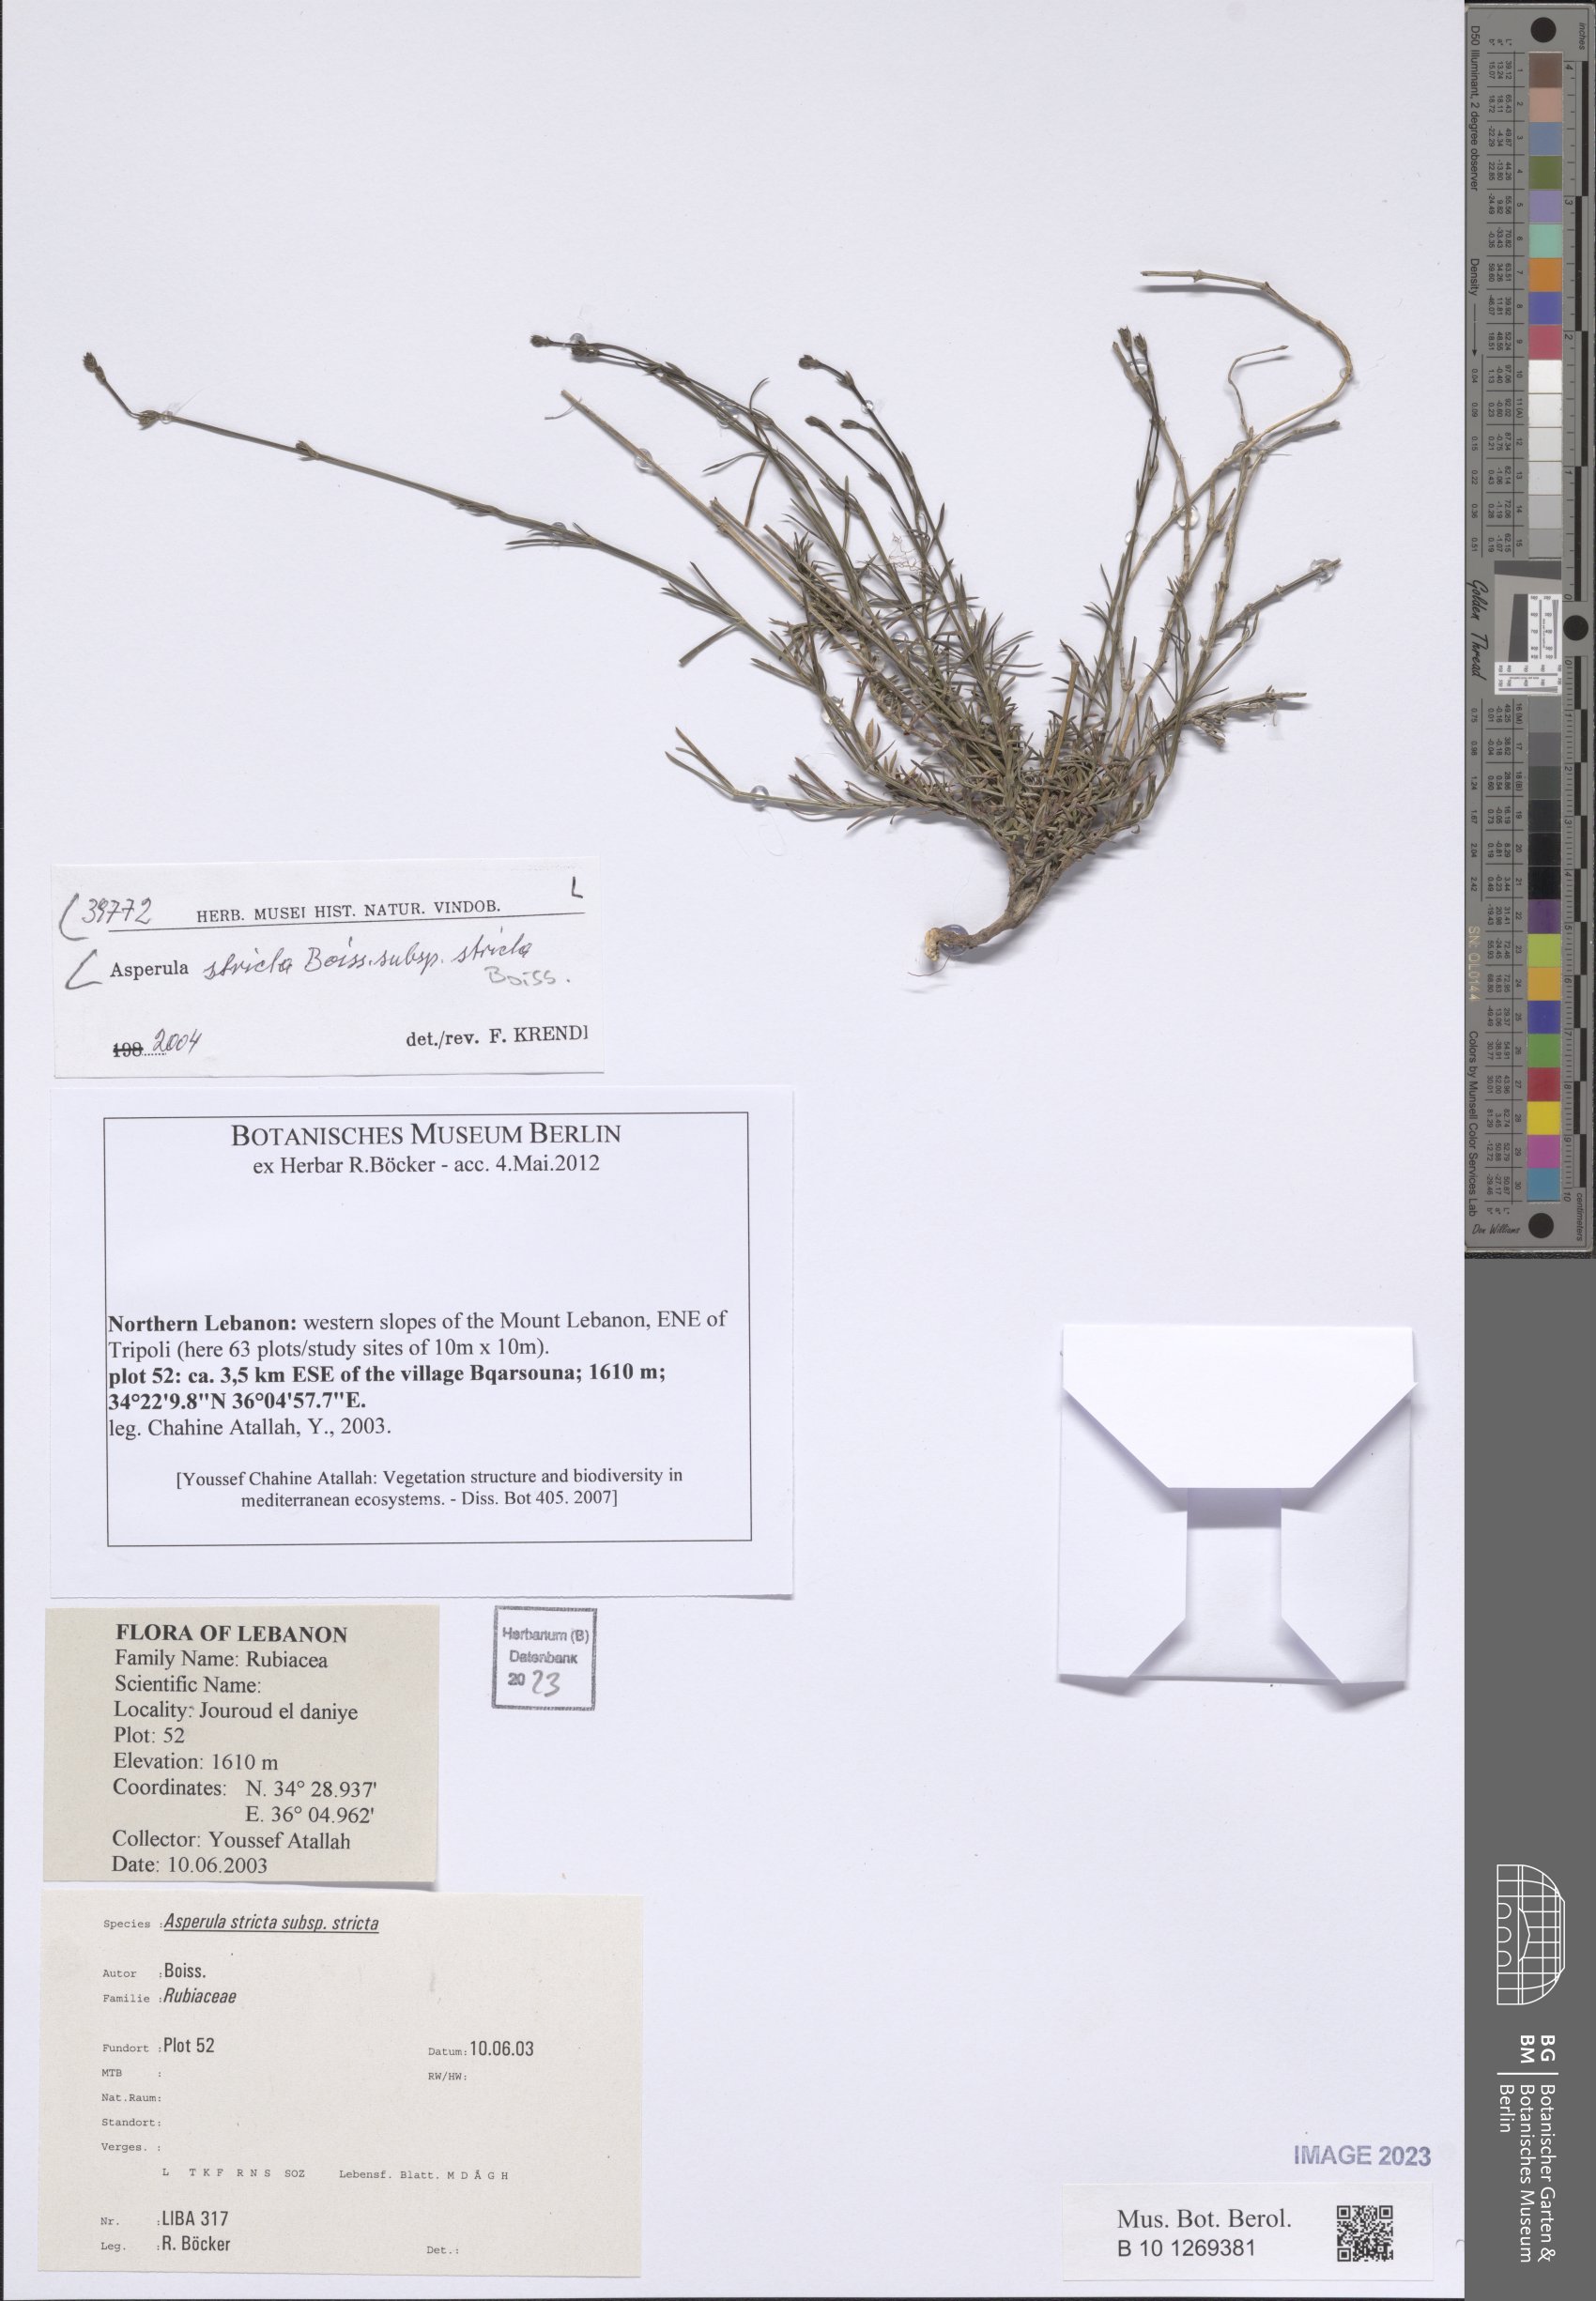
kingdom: Plantae
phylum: Tracheophyta
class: Magnoliopsida
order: Gentianales
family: Rubiaceae
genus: Cynanchica
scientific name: Cynanchica stricta
